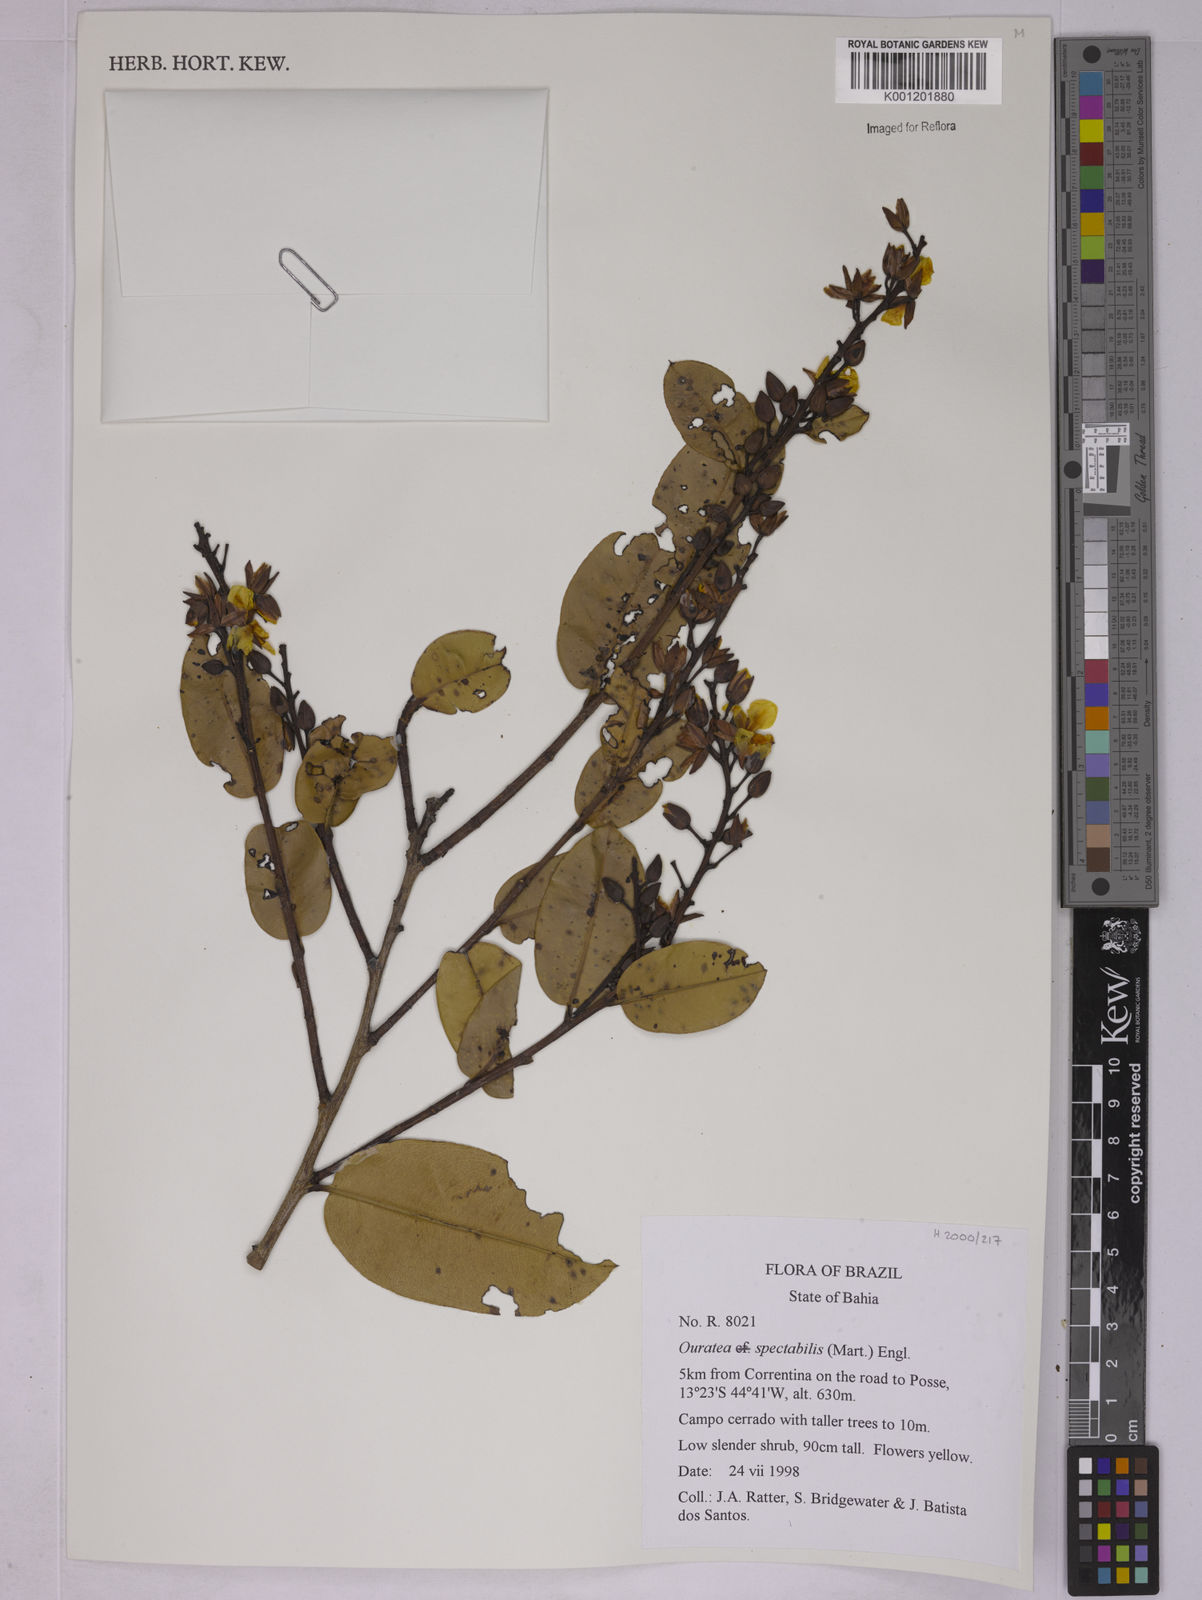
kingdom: Plantae
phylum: Tracheophyta
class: Magnoliopsida
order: Malpighiales
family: Ochnaceae
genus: Ouratea
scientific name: Ouratea spectabilis
